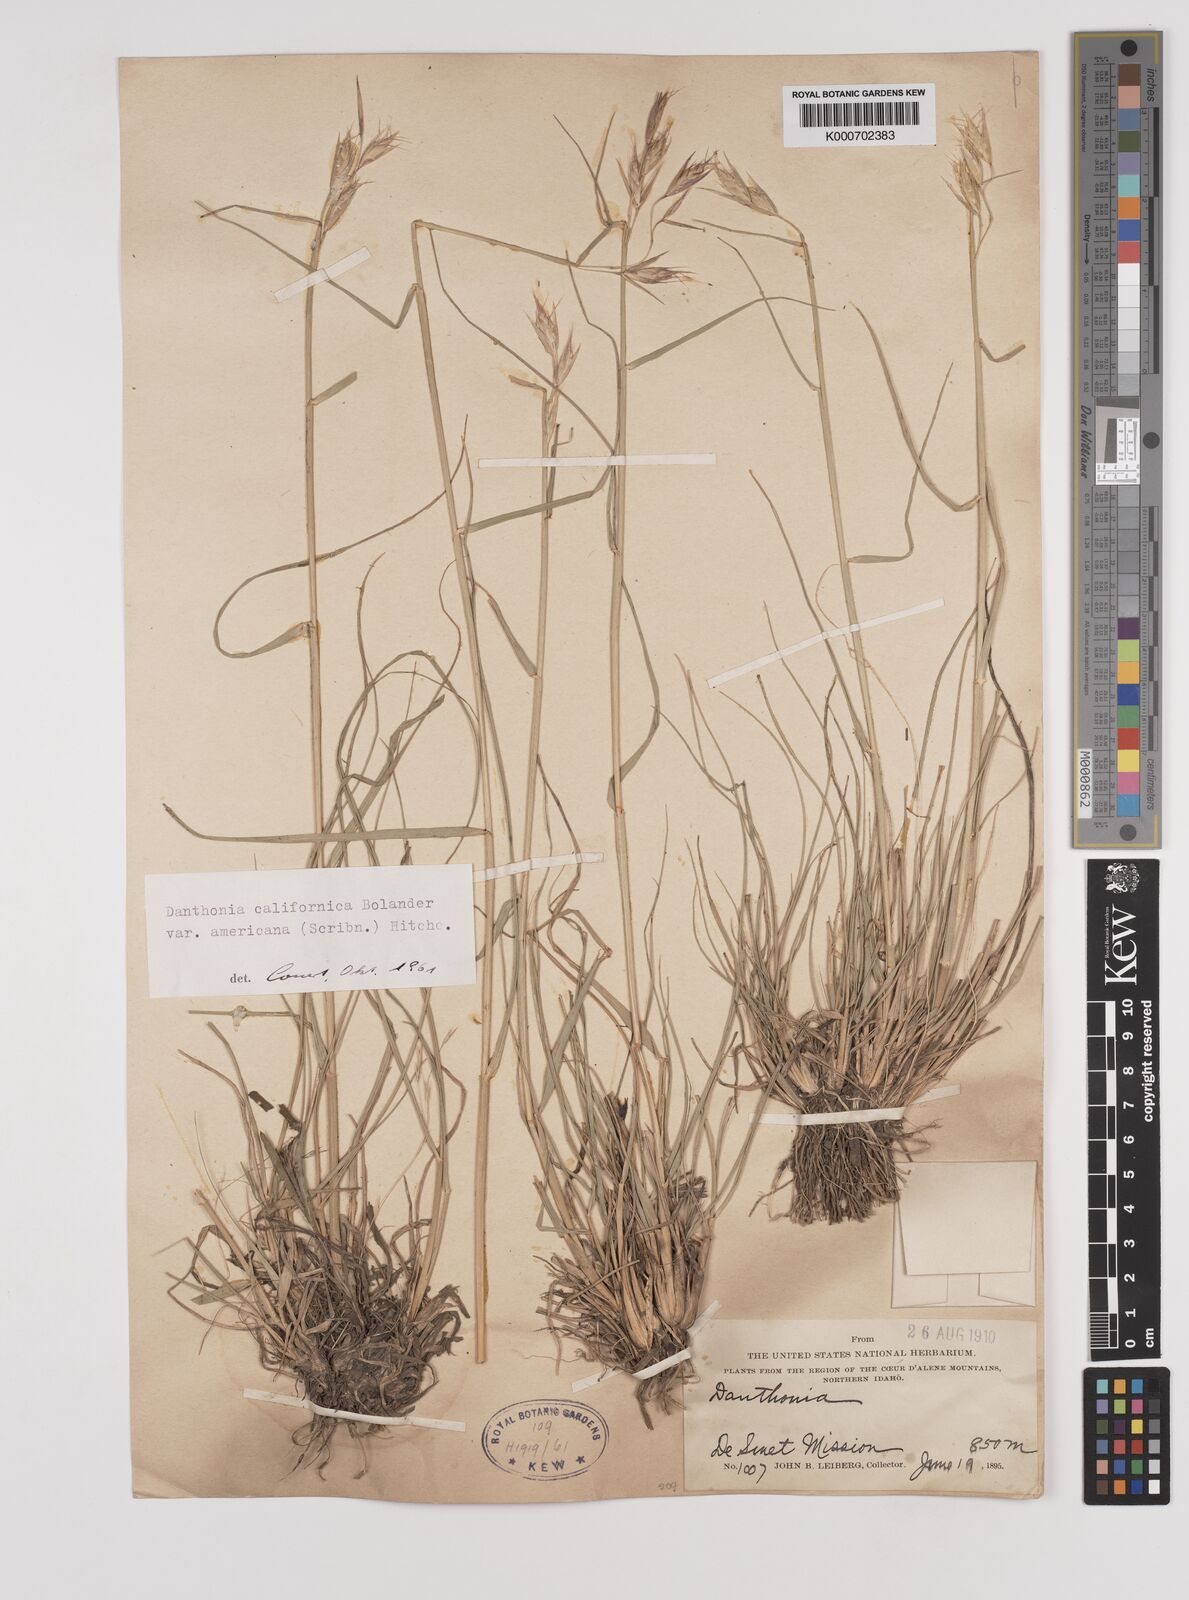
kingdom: Plantae
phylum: Tracheophyta
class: Liliopsida
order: Poales
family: Poaceae
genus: Danthonia
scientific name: Danthonia californica
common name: California oat grass
